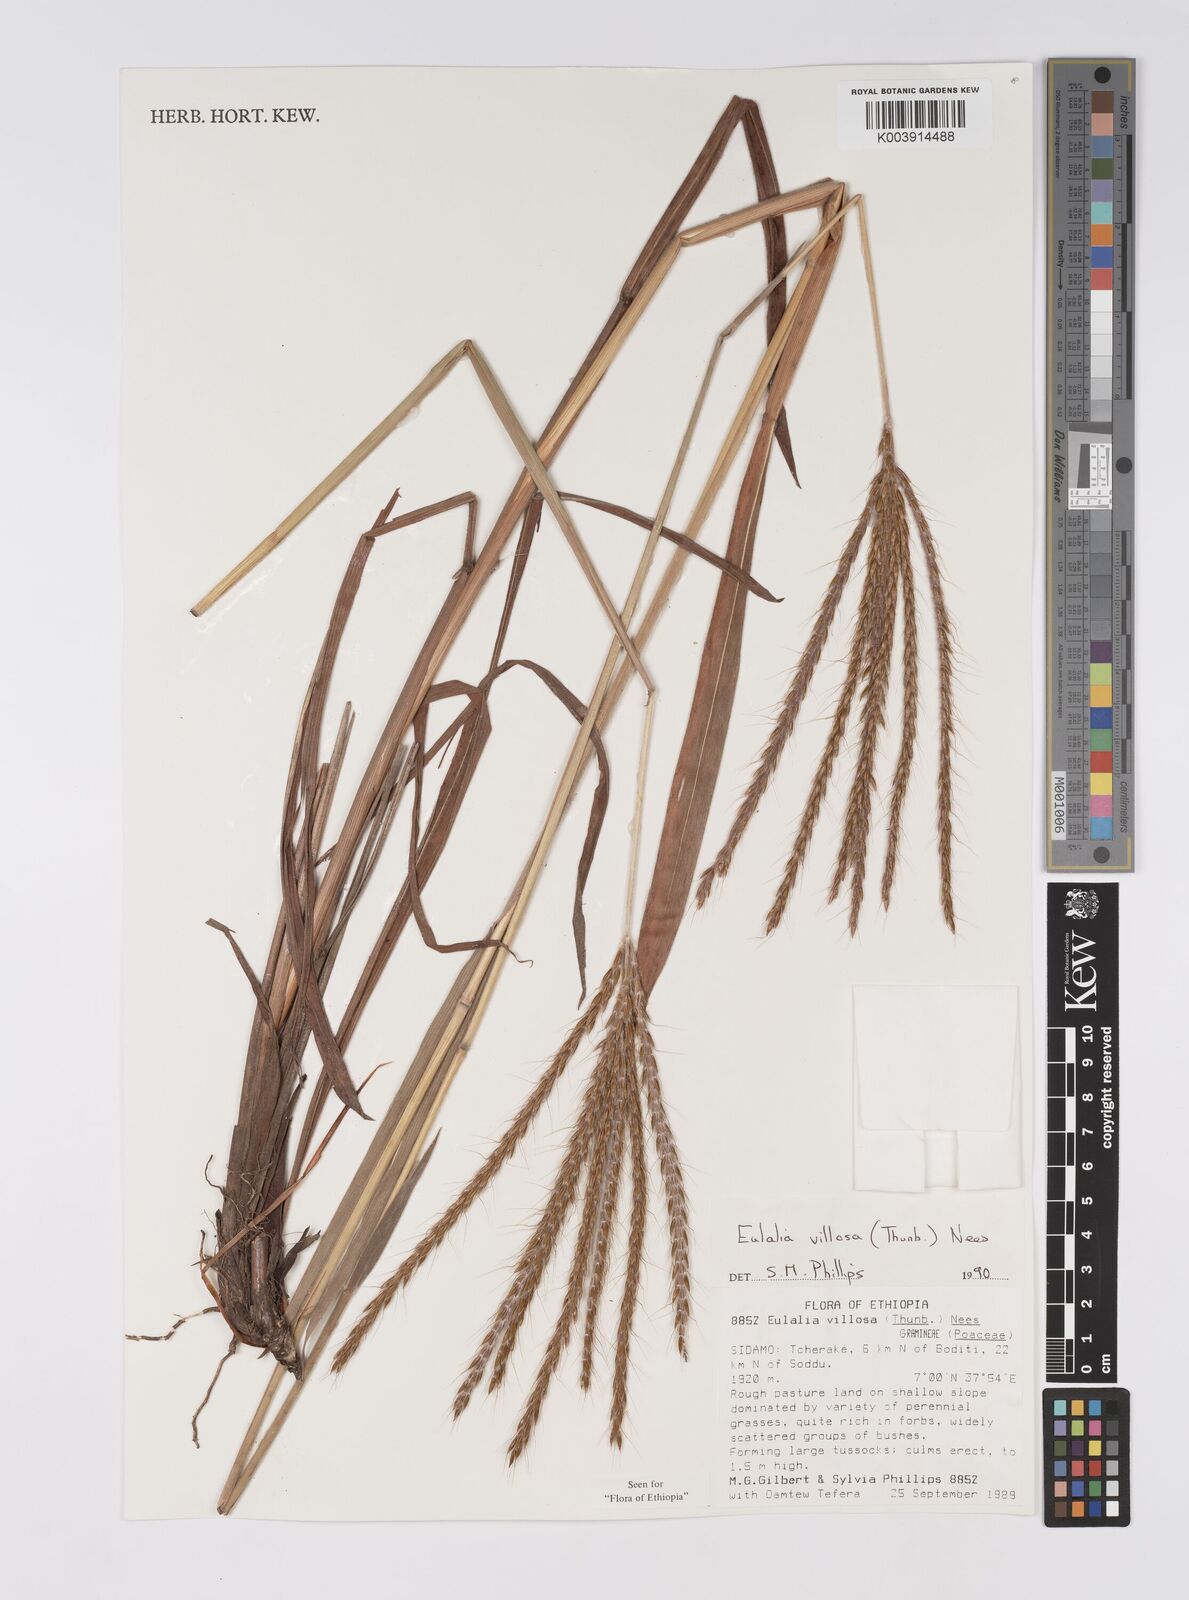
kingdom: Plantae
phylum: Tracheophyta
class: Liliopsida
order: Poales
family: Poaceae
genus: Eulalia
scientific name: Eulalia villosa
